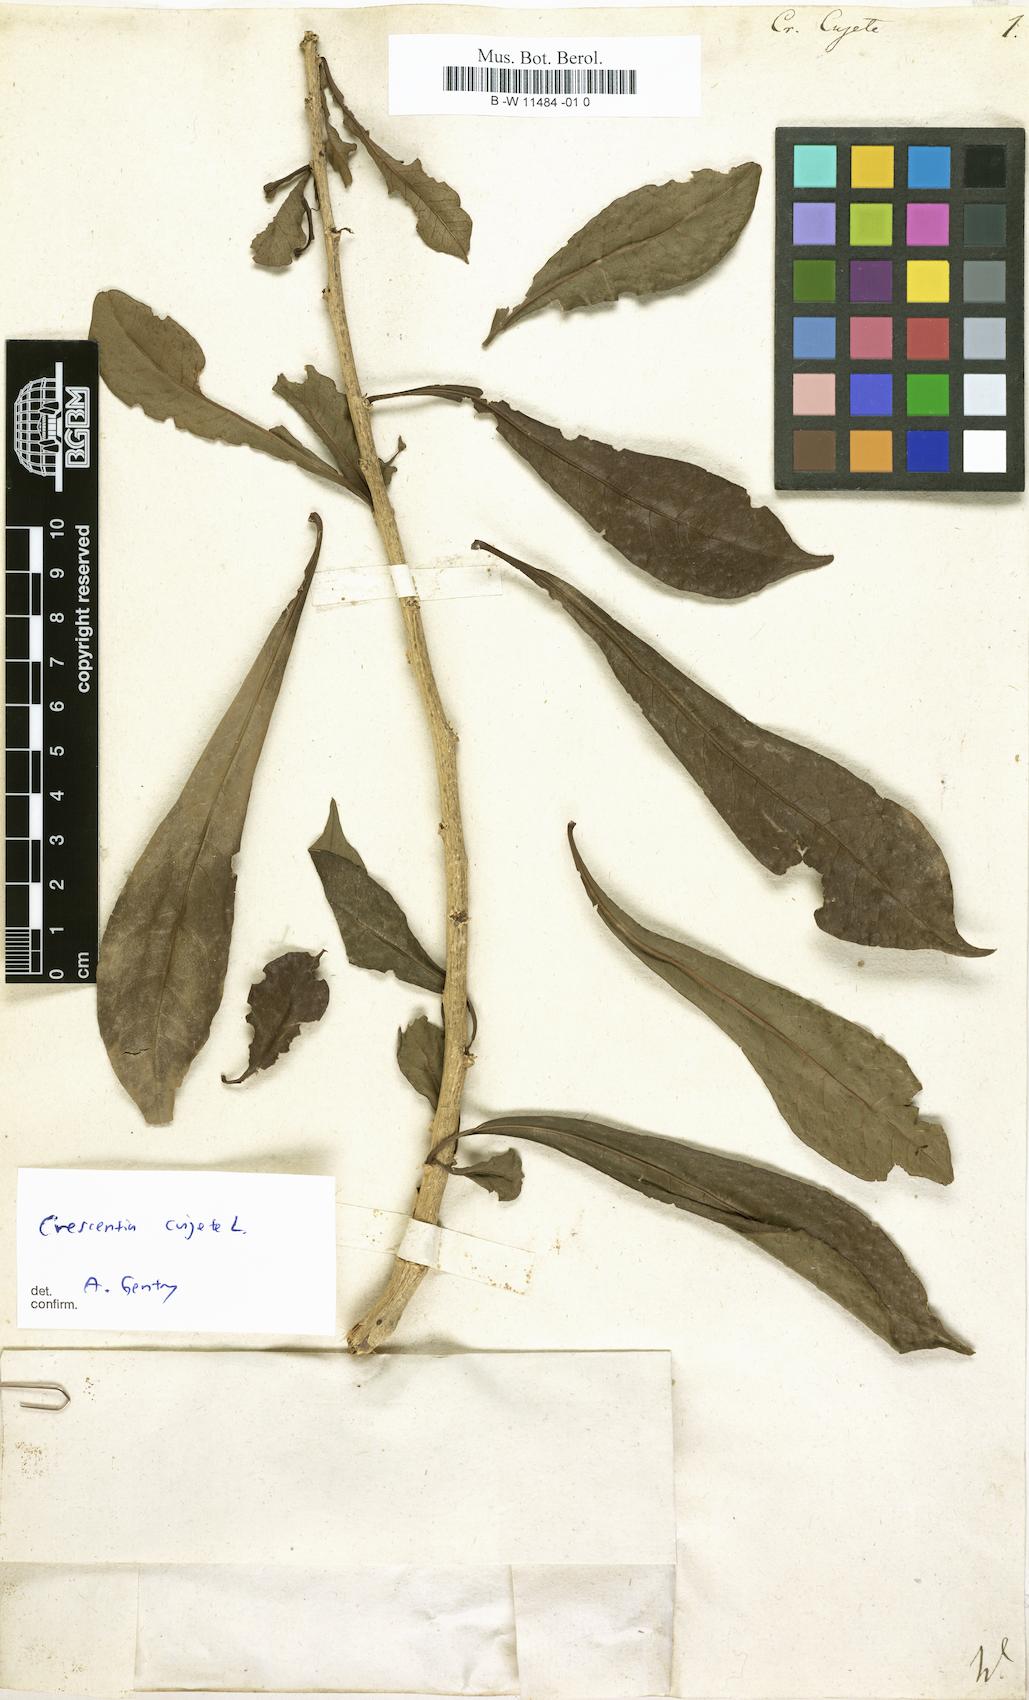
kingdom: Plantae
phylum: Tracheophyta
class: Magnoliopsida
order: Lamiales
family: Bignoniaceae
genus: Crescentia
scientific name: Crescentia cujete
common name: Calabash
